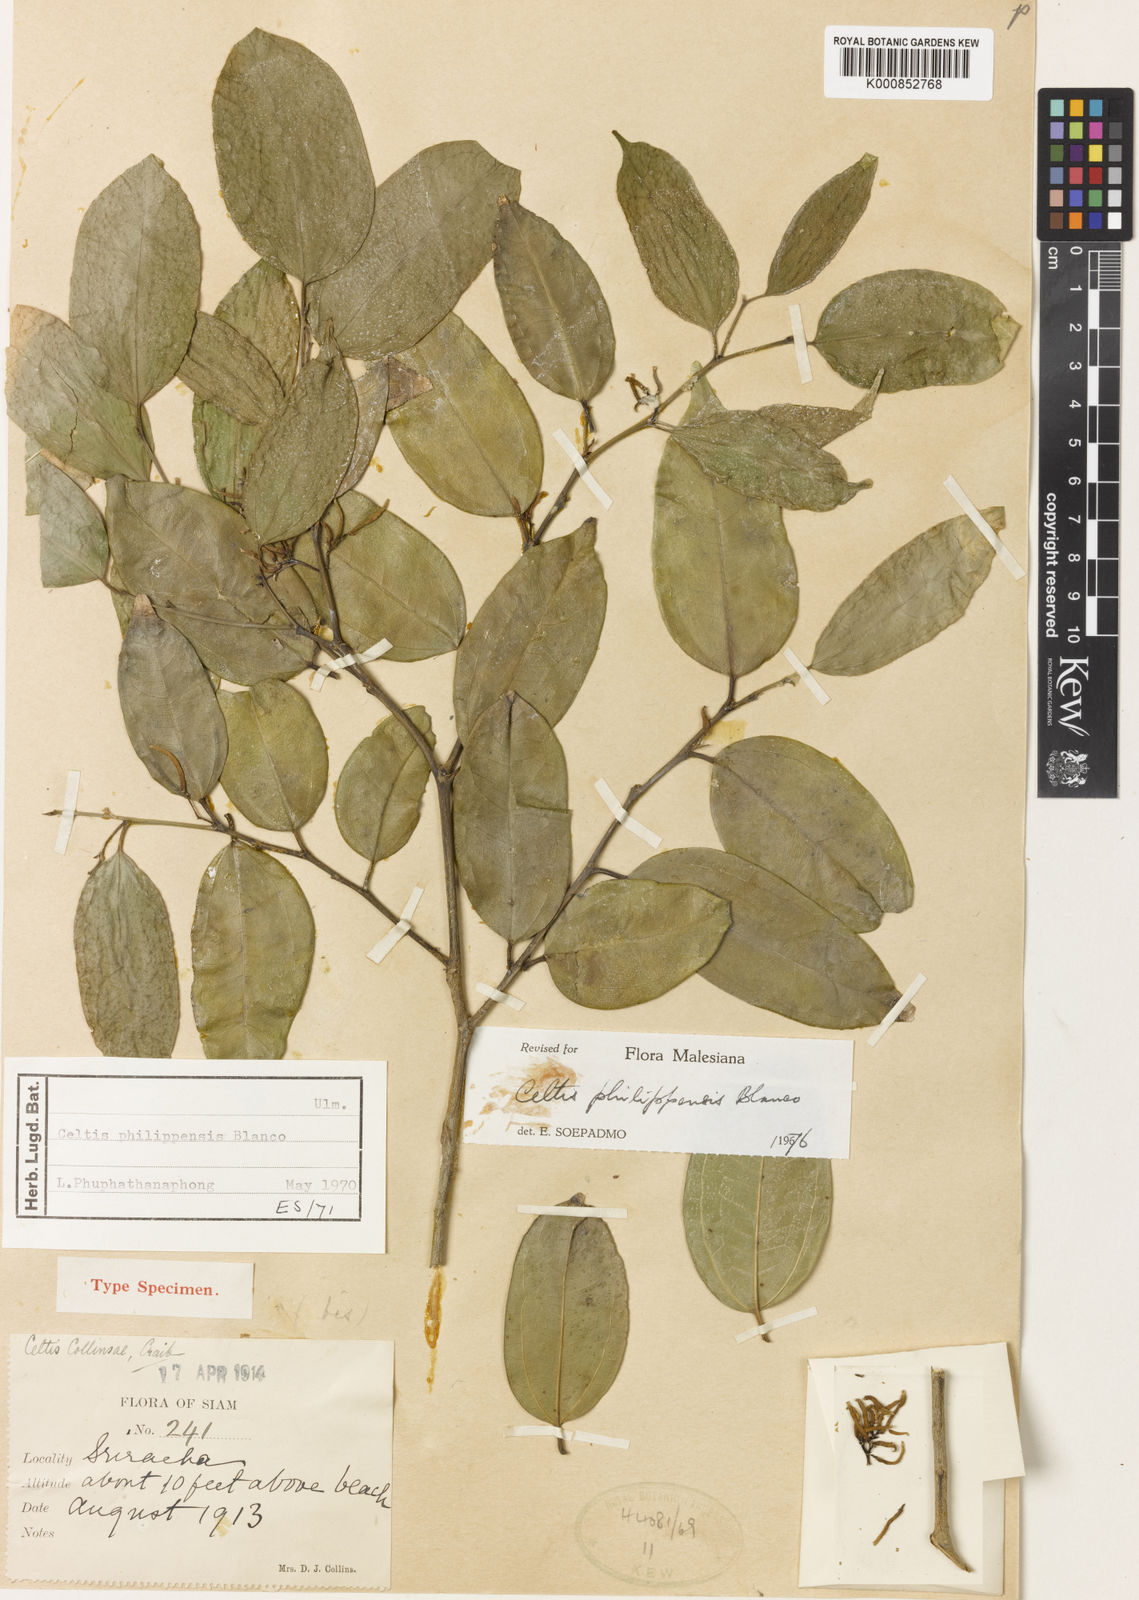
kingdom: Plantae
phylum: Tracheophyta
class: Magnoliopsida
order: Rosales
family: Cannabaceae
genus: Celtis
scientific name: Celtis philippensis
